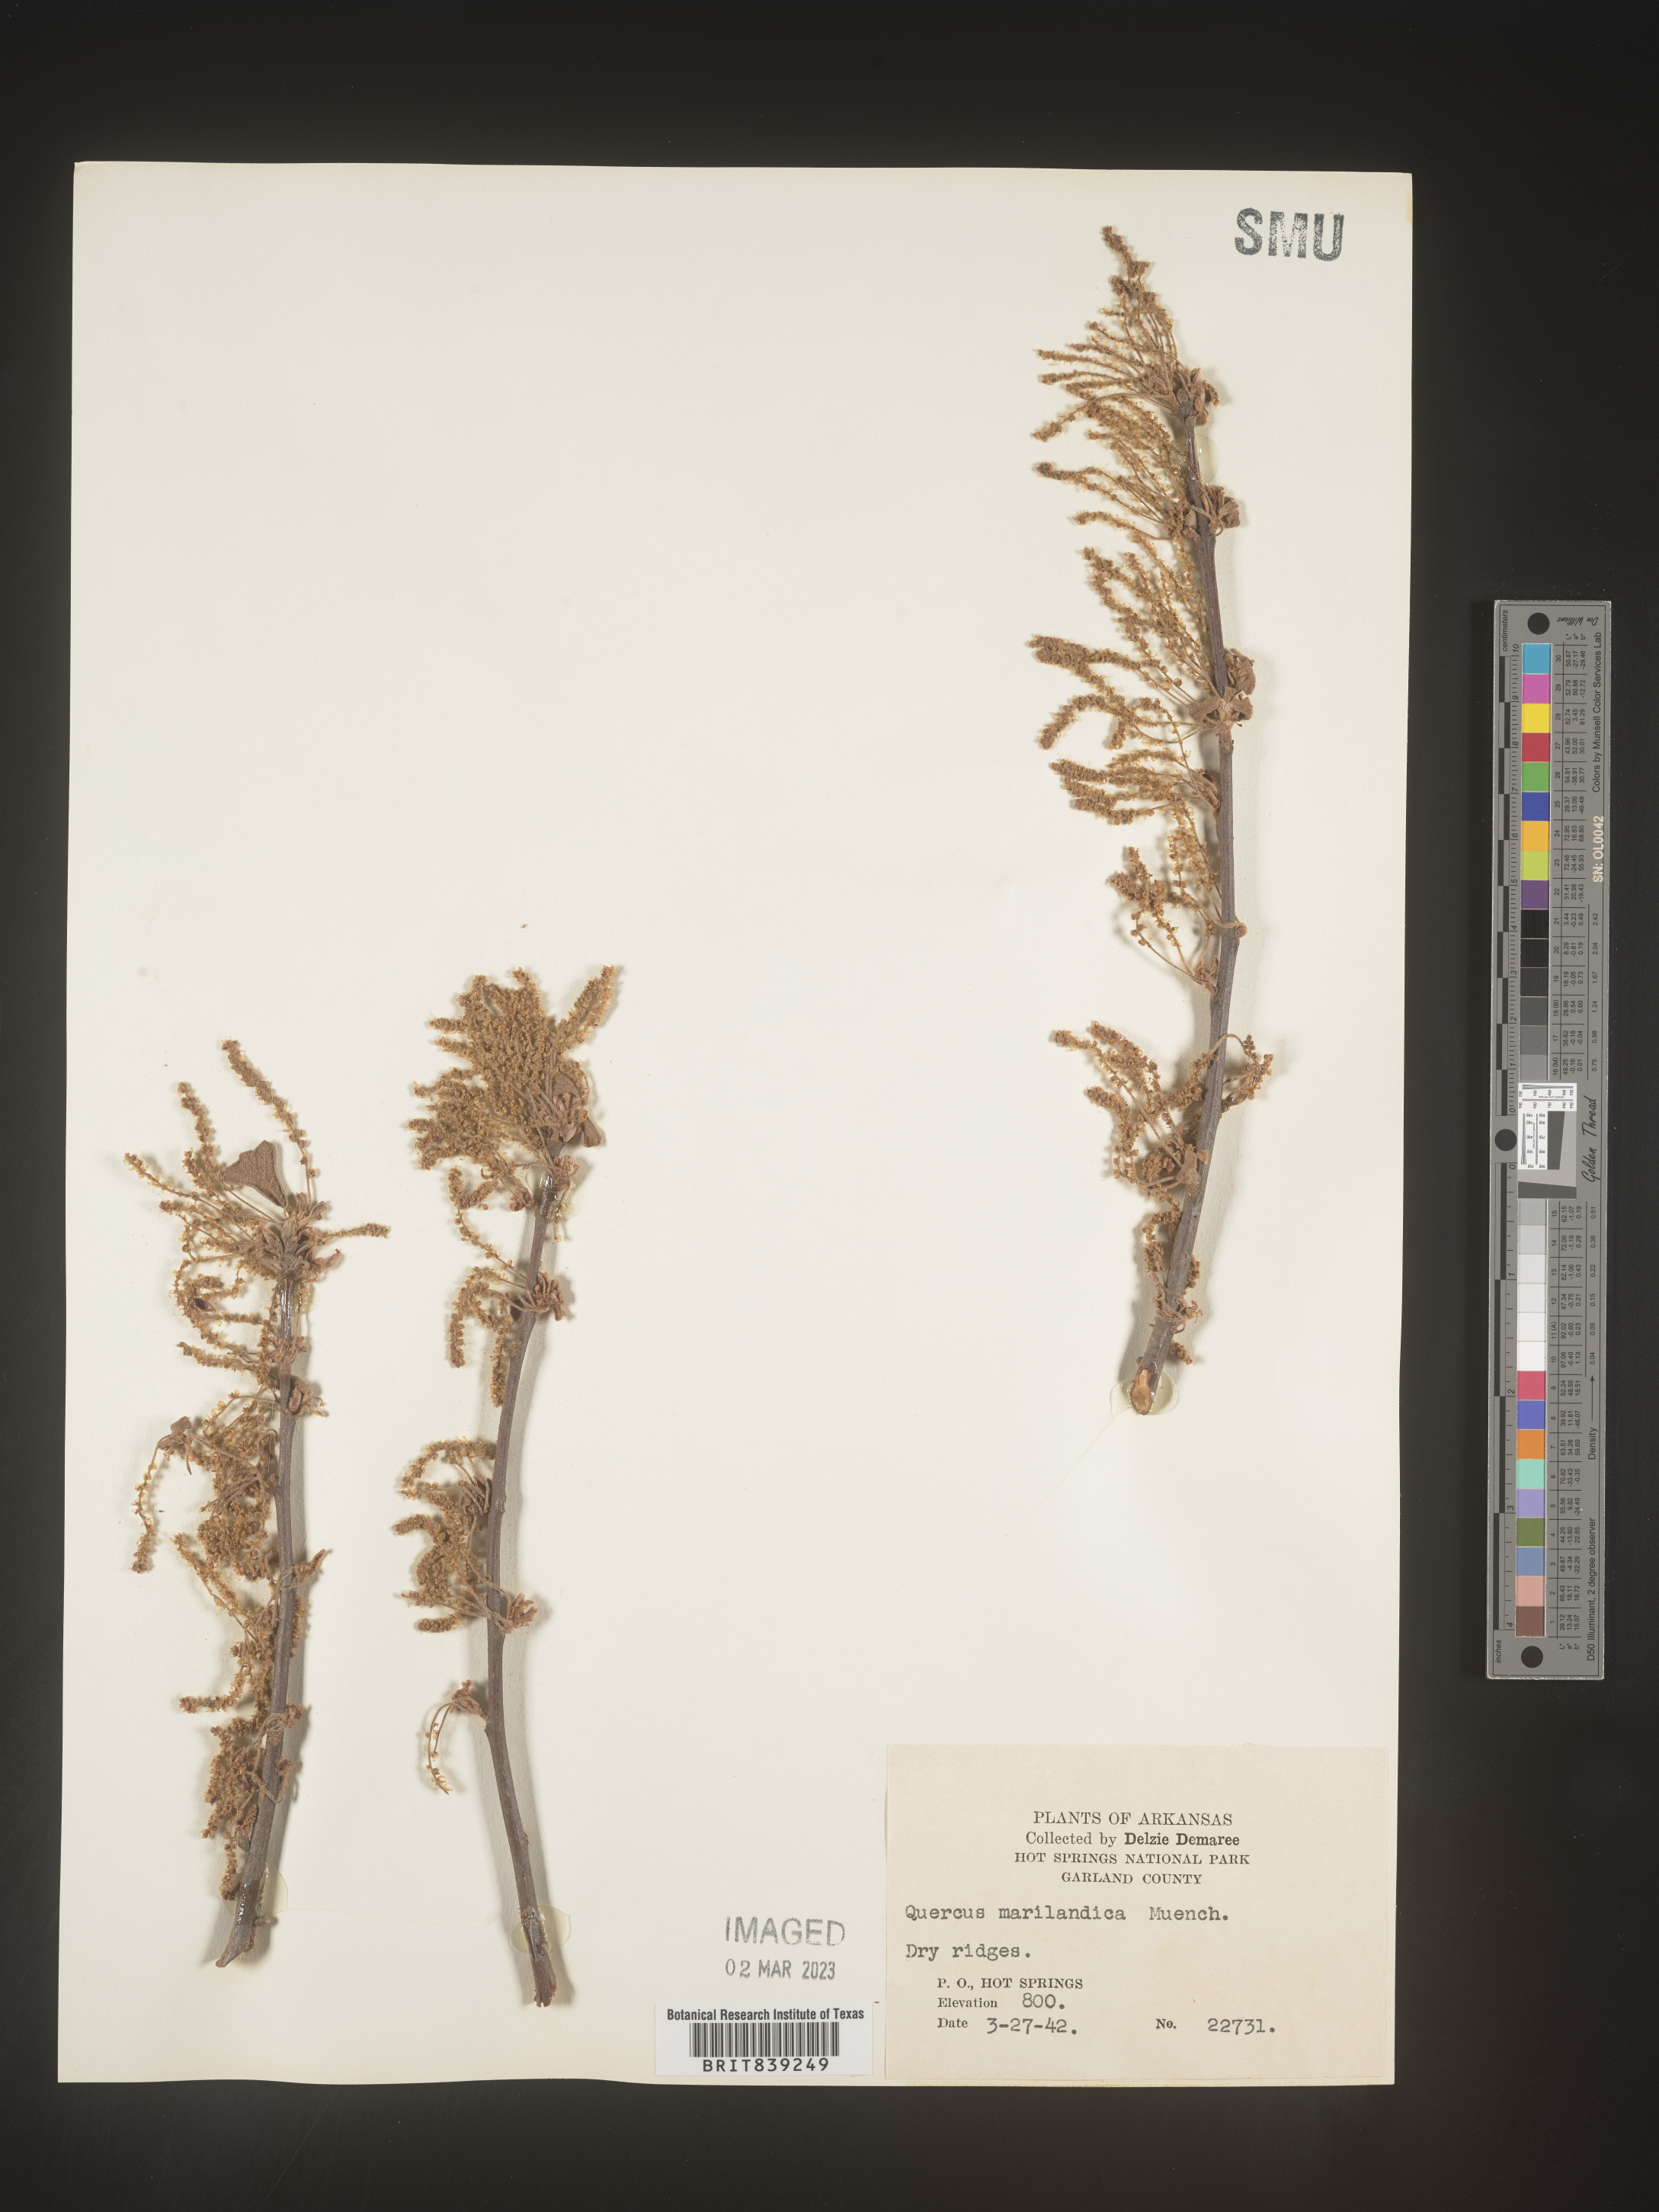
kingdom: Plantae
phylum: Tracheophyta
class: Magnoliopsida
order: Fagales
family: Fagaceae
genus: Quercus
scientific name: Quercus marilandica
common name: Blackjack oak
